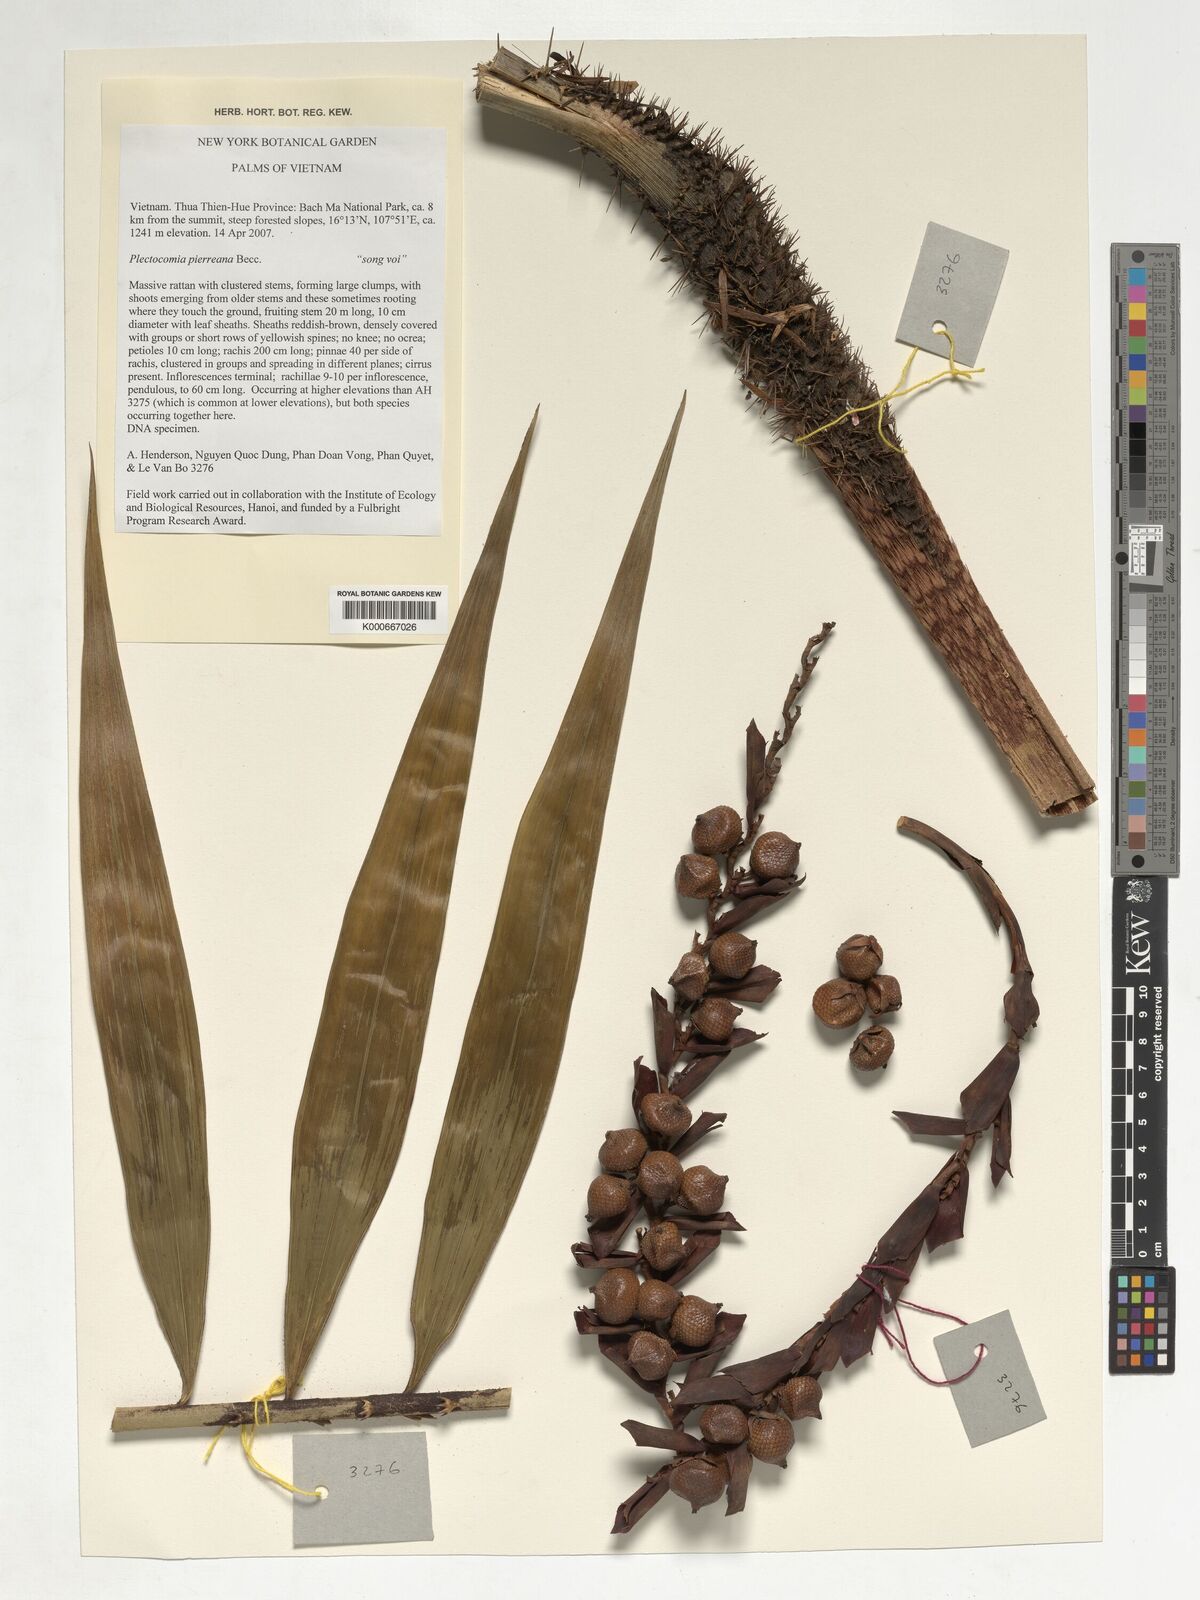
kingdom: Plantae
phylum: Tracheophyta
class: Liliopsida
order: Arecales
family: Arecaceae
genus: Plectocomia
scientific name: Plectocomia pierreana
